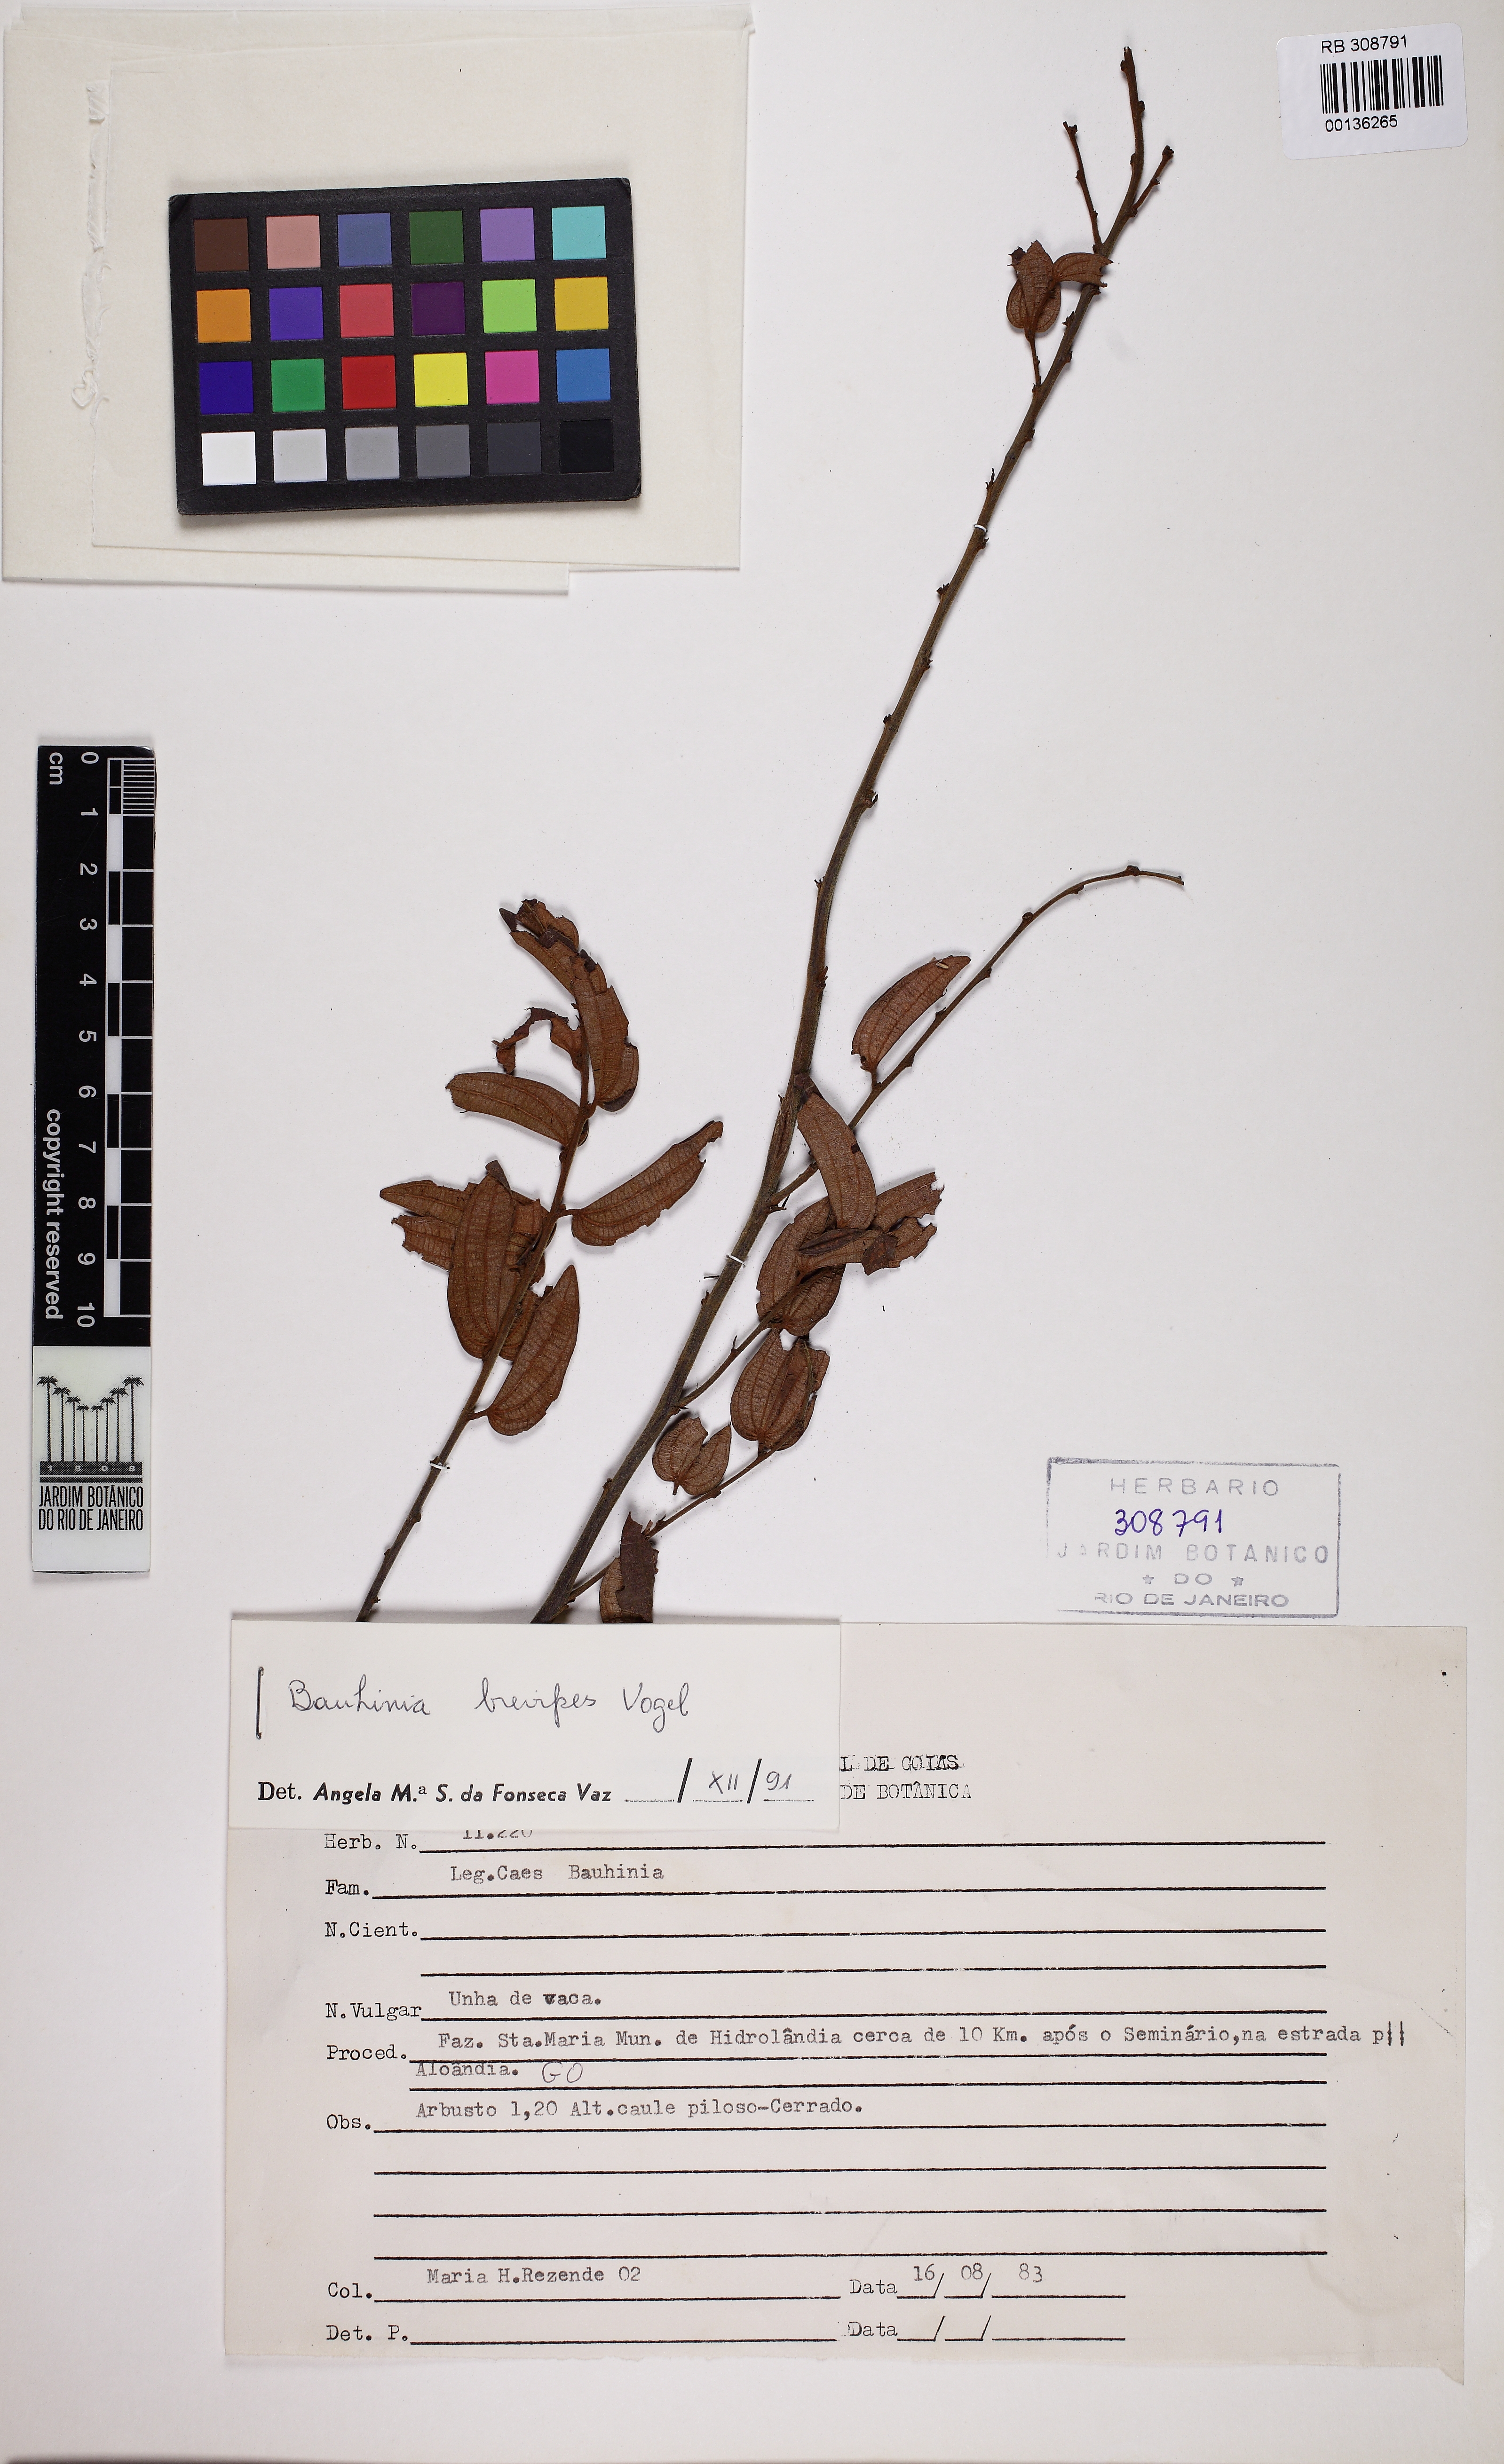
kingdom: Plantae
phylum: Tracheophyta
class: Magnoliopsida
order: Fabales
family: Fabaceae
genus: Bauhinia
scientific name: Bauhinia brevipes
